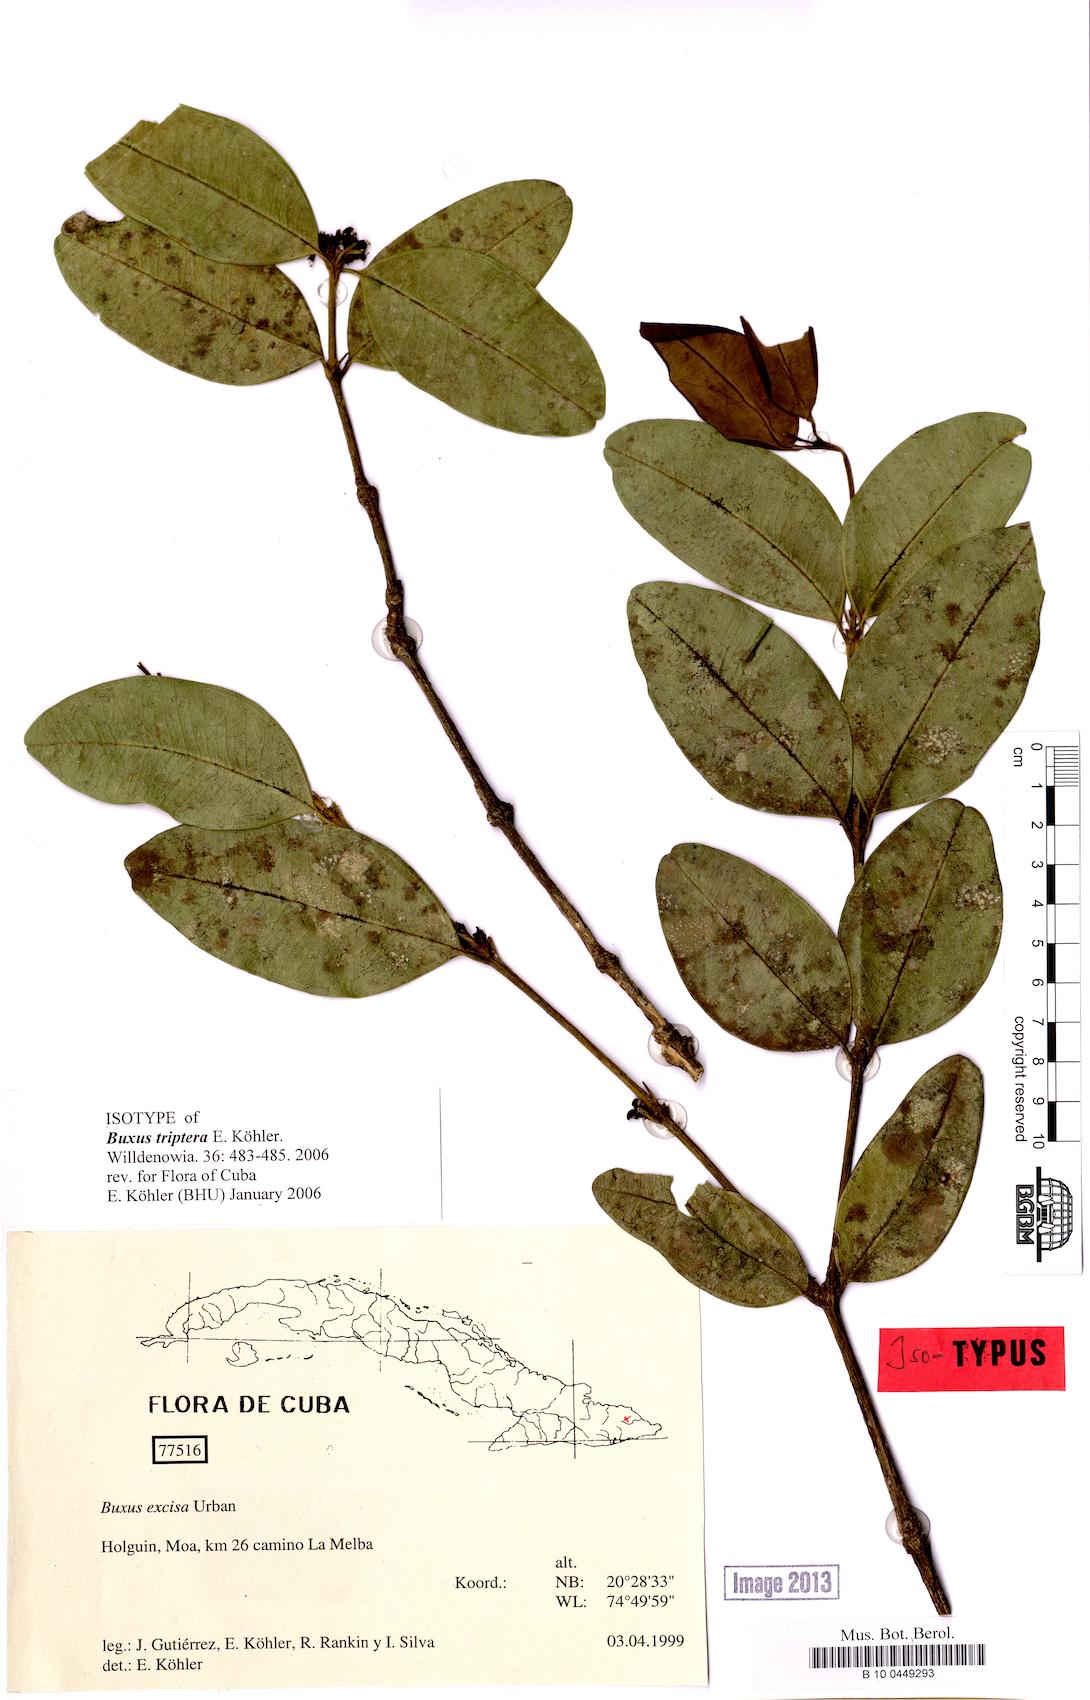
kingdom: Plantae
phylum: Tracheophyta
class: Magnoliopsida
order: Buxales
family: Buxaceae
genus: Buxus
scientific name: Buxus triptera
